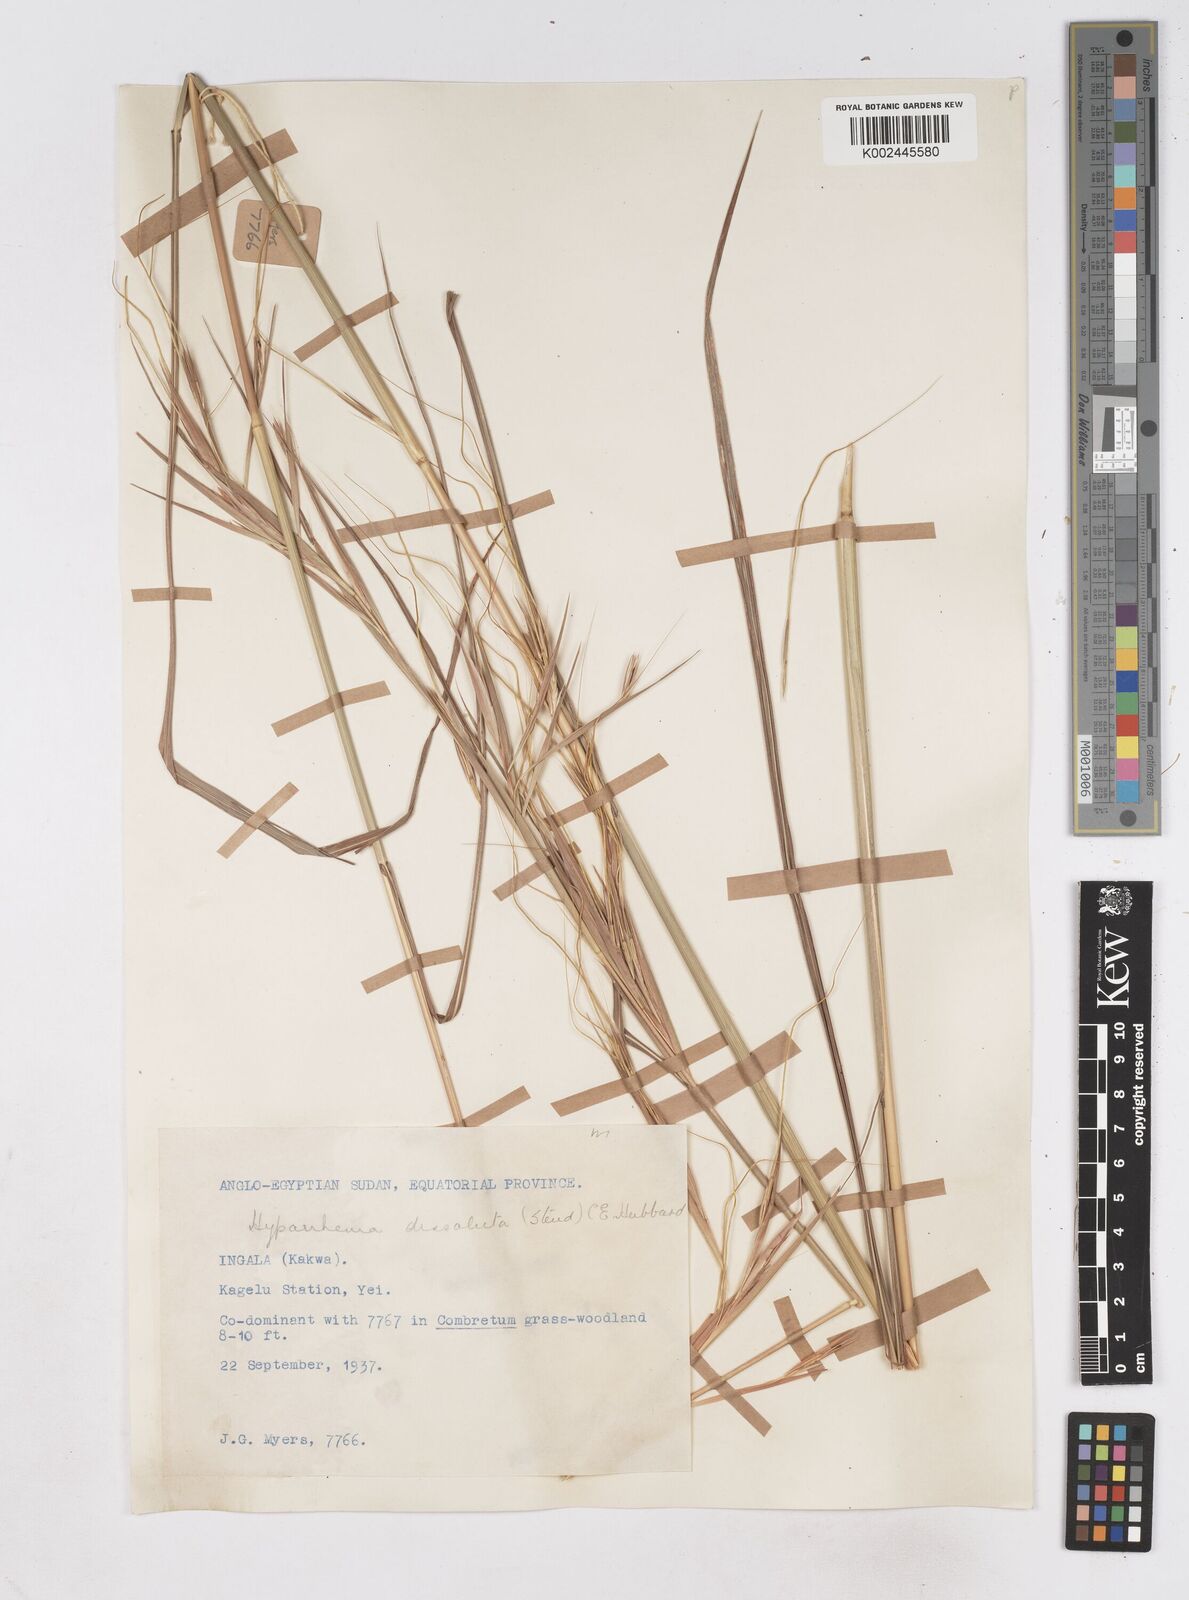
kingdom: Plantae
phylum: Tracheophyta
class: Liliopsida
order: Poales
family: Poaceae
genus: Hyperthelia
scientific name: Hyperthelia dissoluta
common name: Yellow thatching grass
